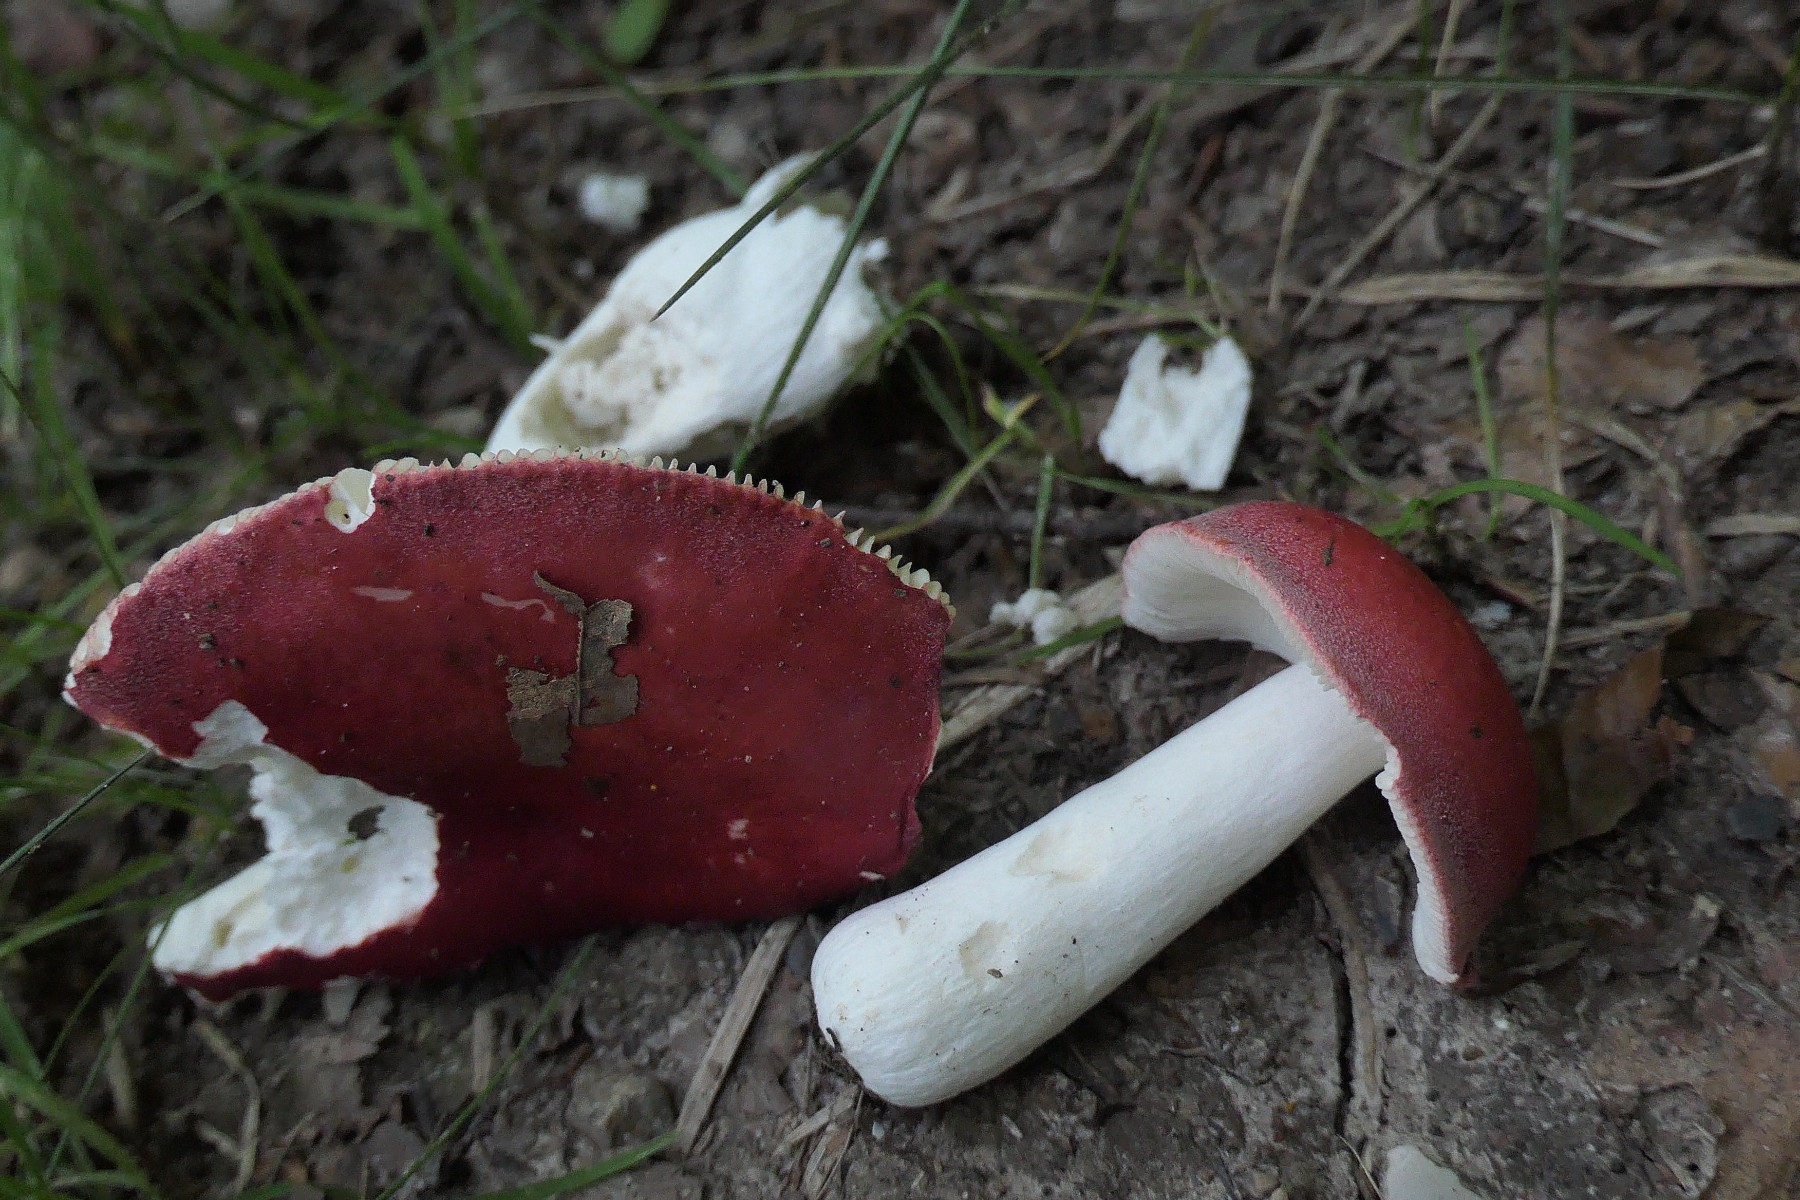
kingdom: Fungi
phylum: Basidiomycota
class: Agaricomycetes
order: Russulales
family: Russulaceae
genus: Russula
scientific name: Russula pseudointegra
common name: cinnoberrød skørhat
